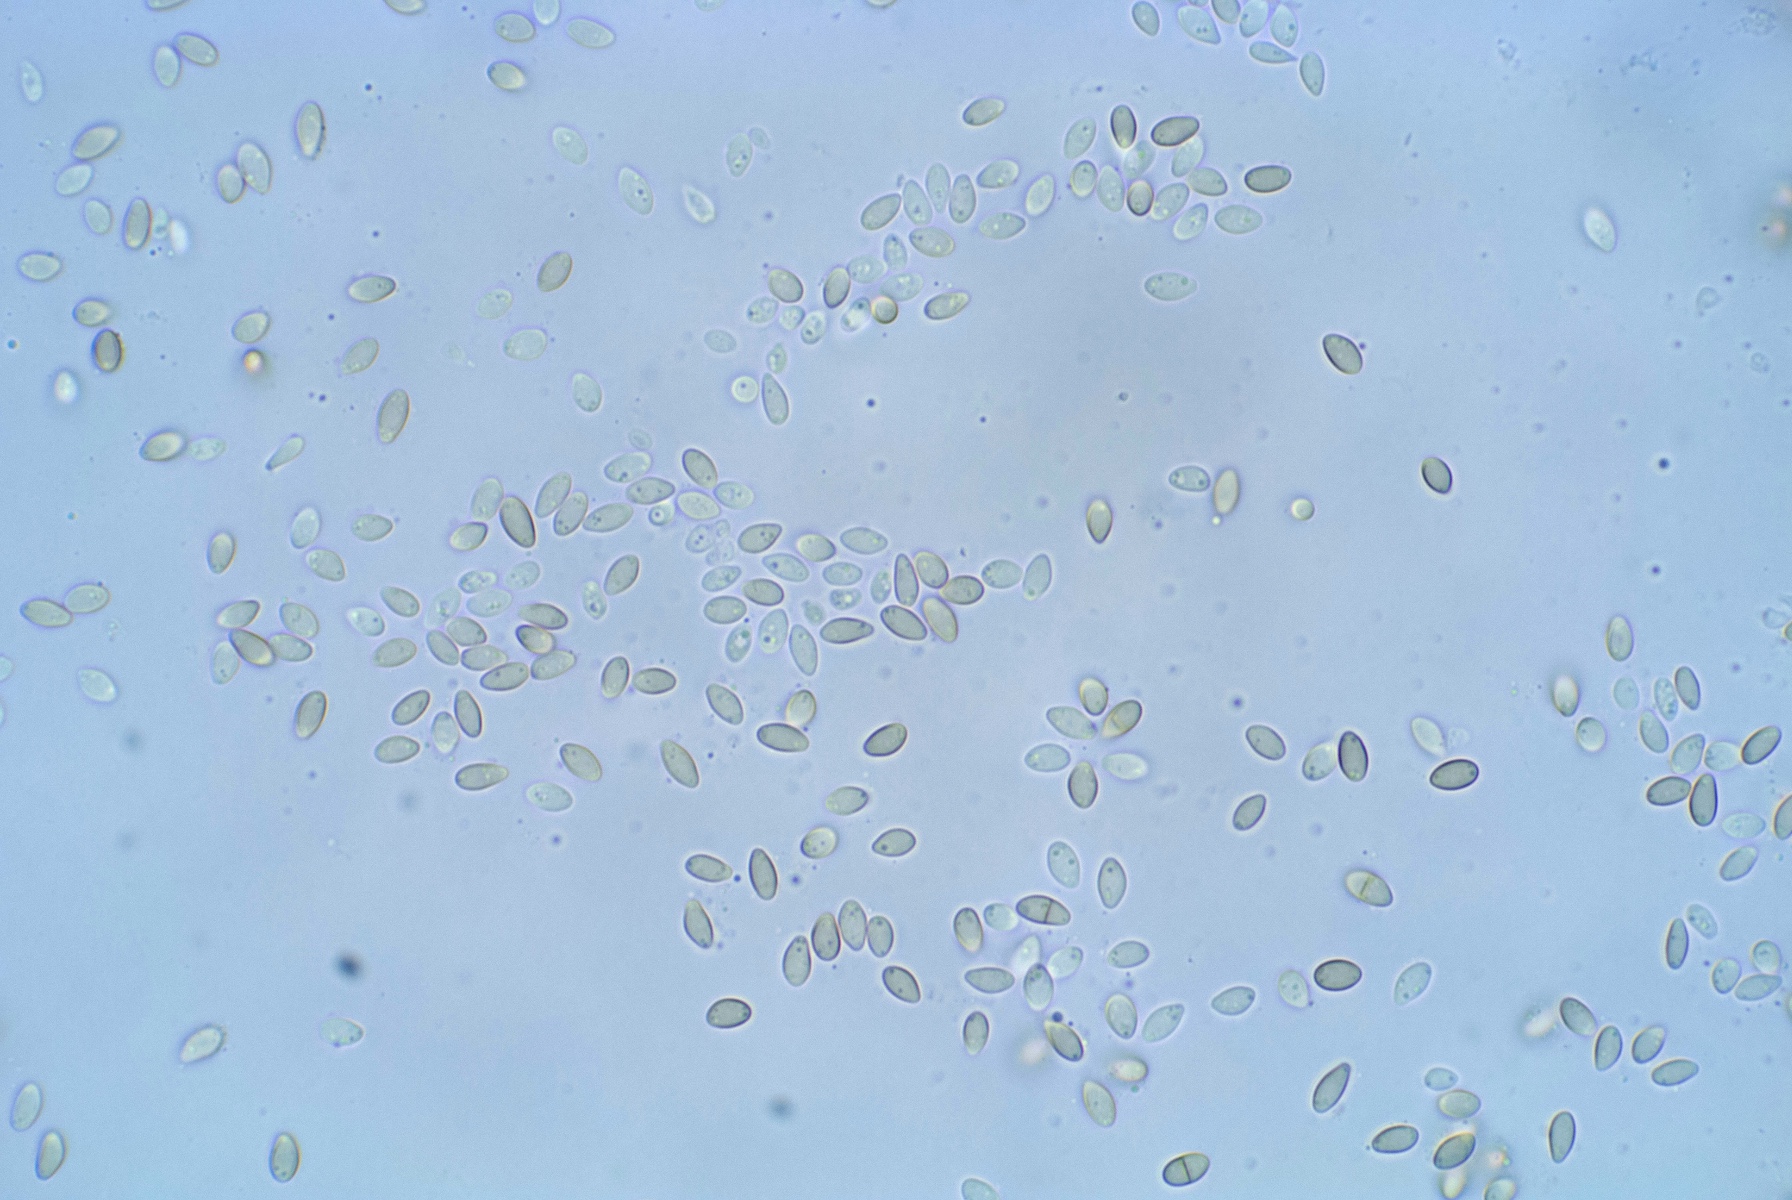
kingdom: Fungi
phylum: Ascomycota
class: Dothideomycetes
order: Pleosporales
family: Coniothyriaceae
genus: Coniothyrium
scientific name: Coniothyrium ilicis
